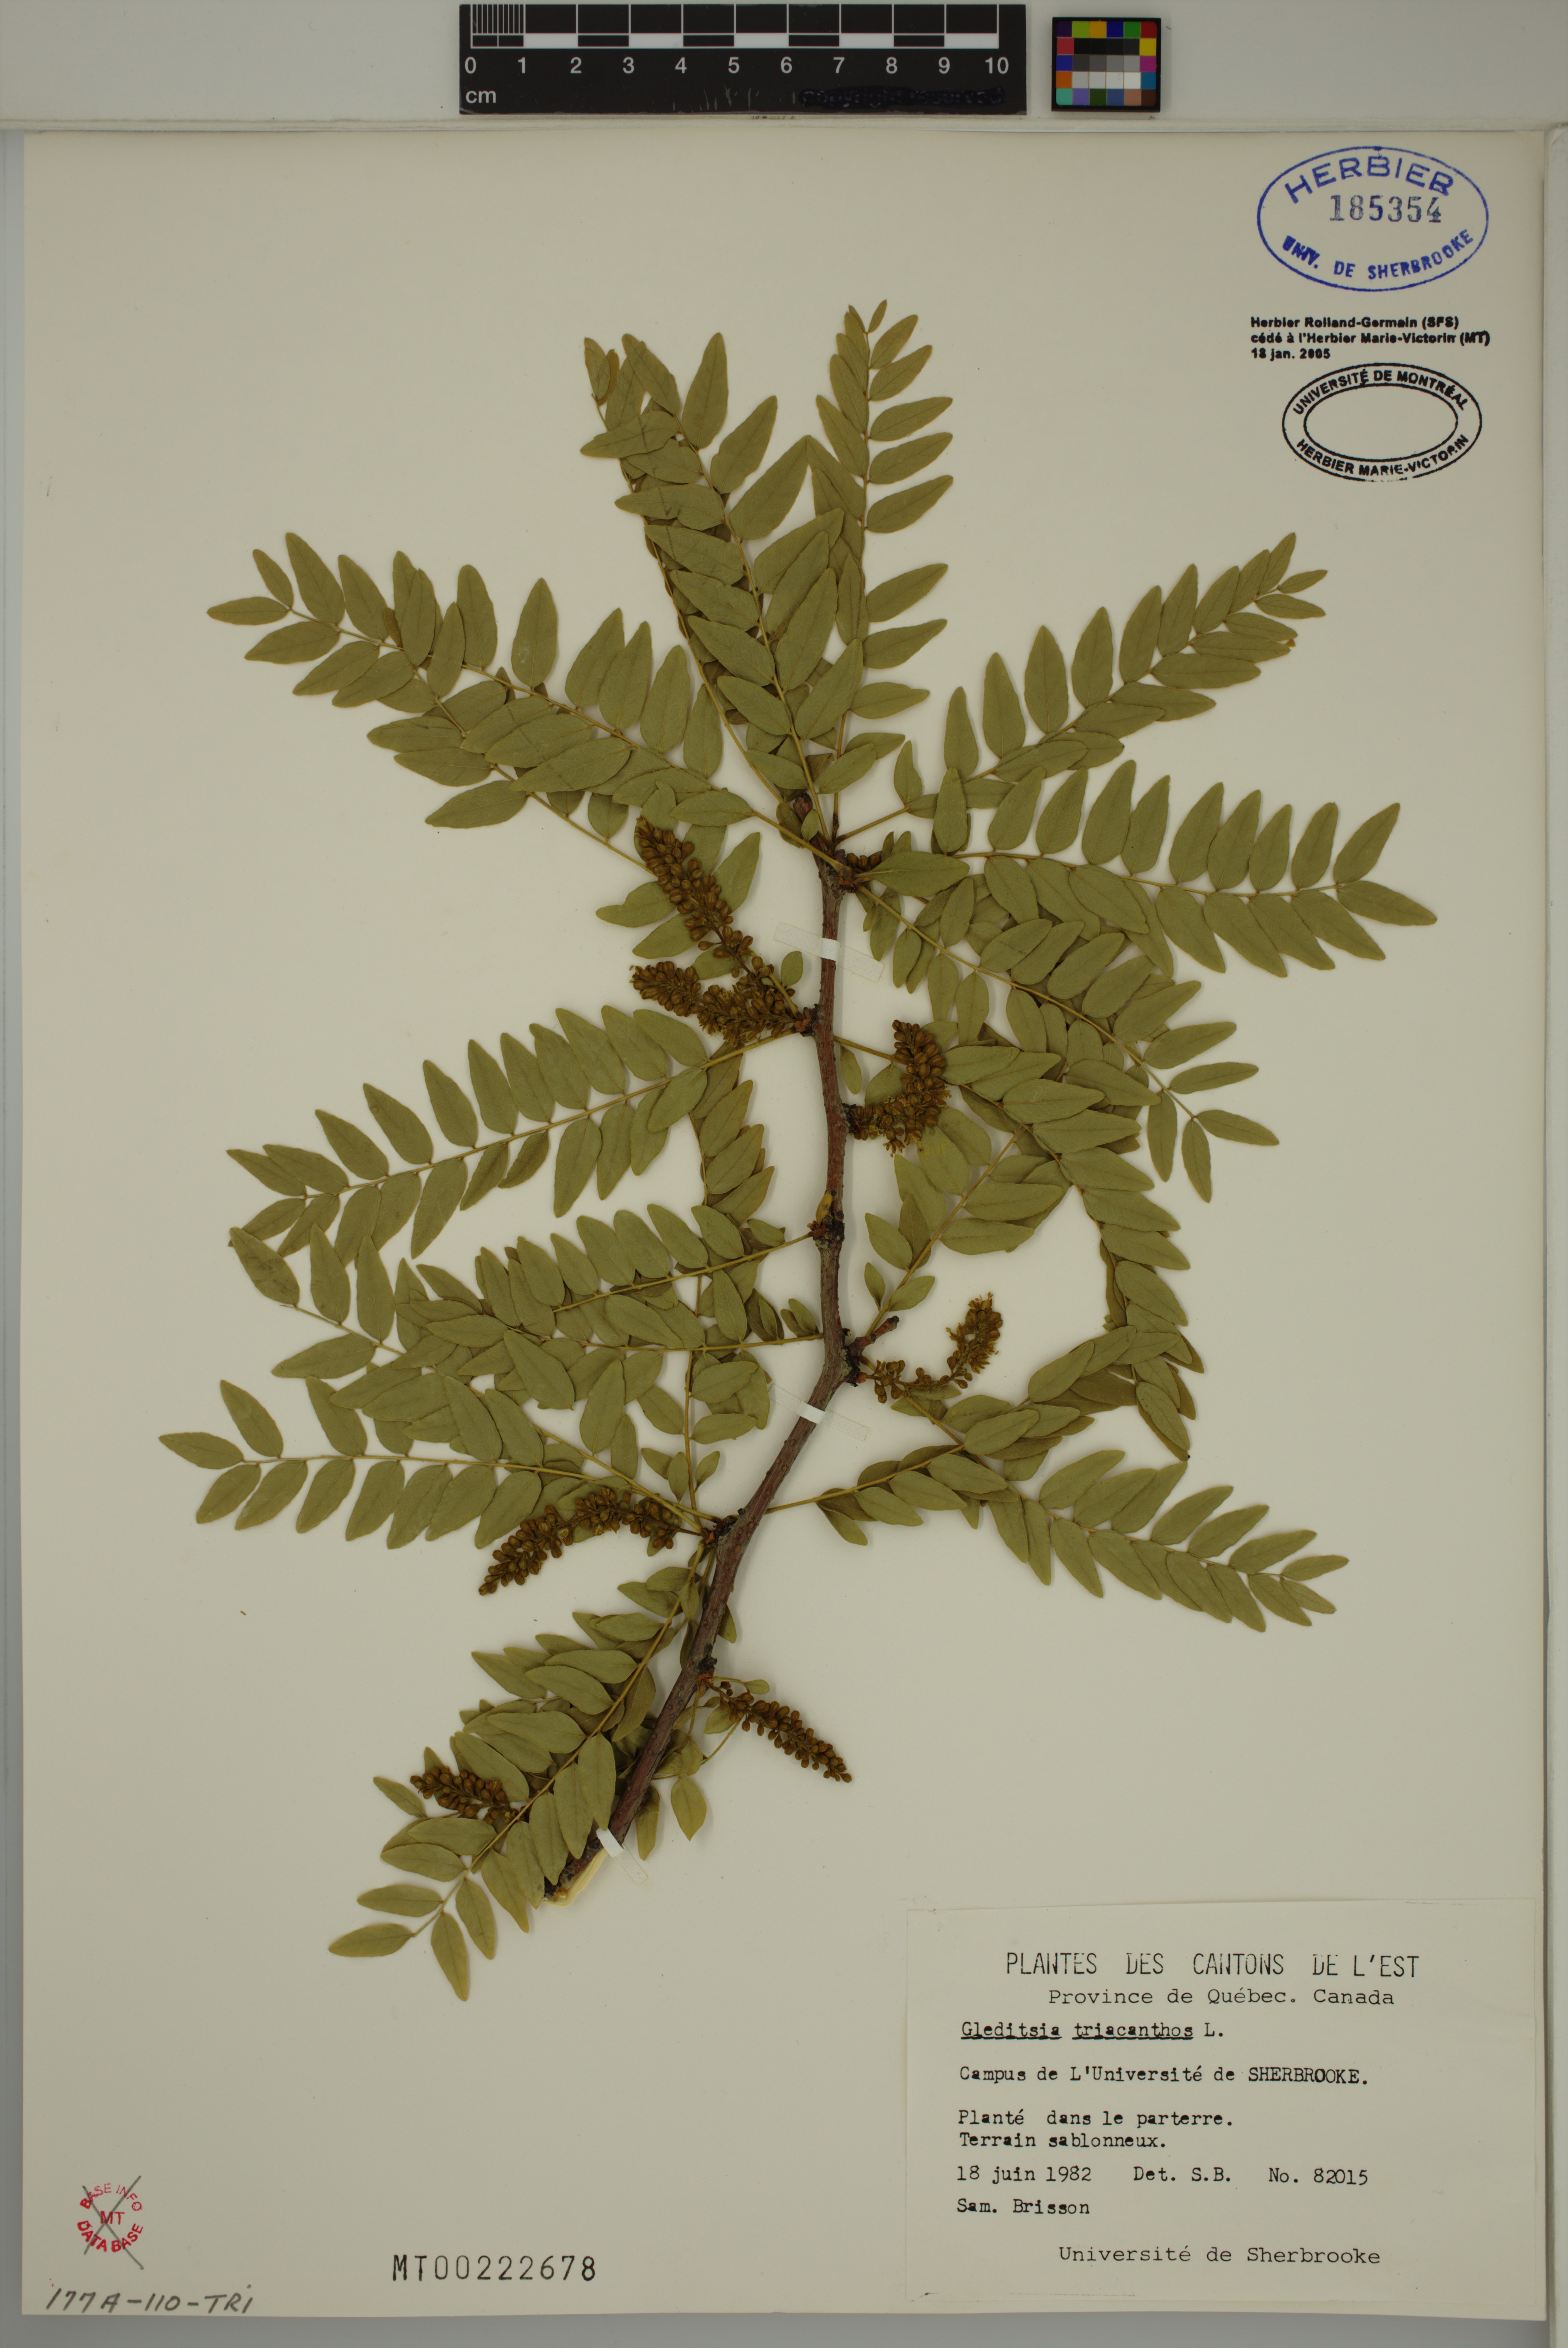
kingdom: Plantae
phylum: Tracheophyta
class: Magnoliopsida
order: Fabales
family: Fabaceae
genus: Gleditsia
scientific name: Gleditsia triacanthos
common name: Common honeylocust
